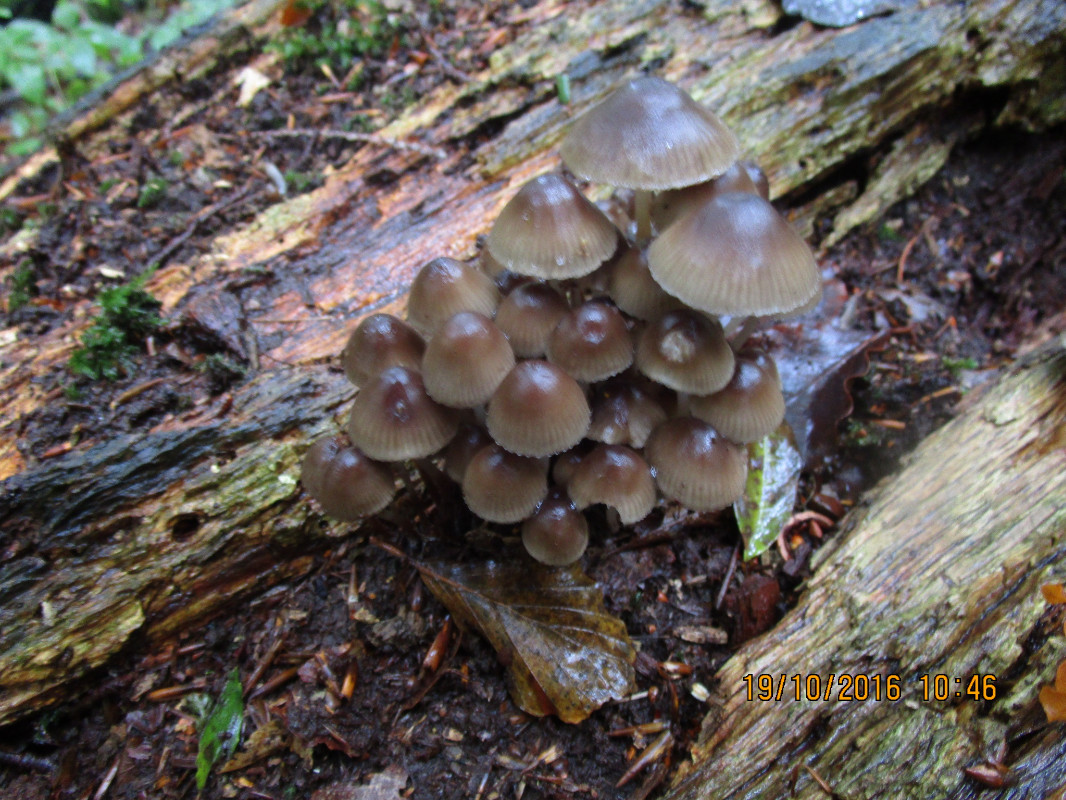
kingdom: Fungi
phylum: Basidiomycota
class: Agaricomycetes
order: Agaricales
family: Mycenaceae
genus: Mycena
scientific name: Mycena inclinata
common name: nikkende huesvamp
